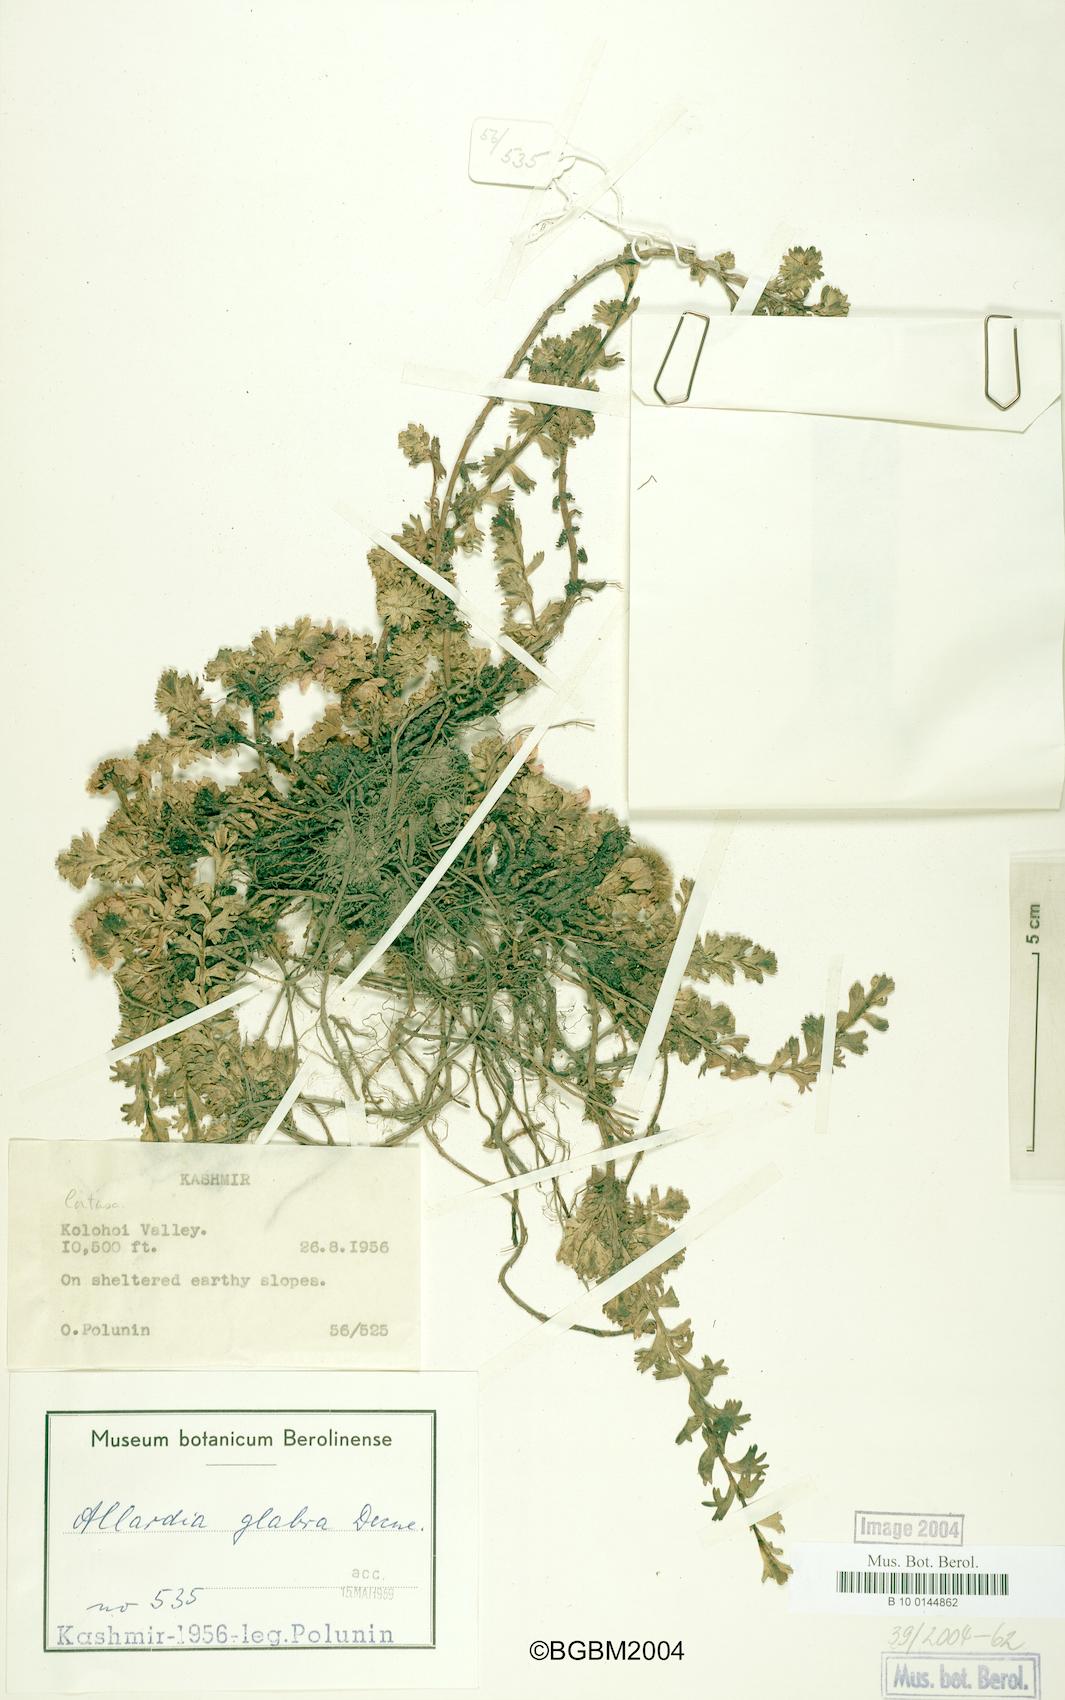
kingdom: Plantae
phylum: Tracheophyta
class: Magnoliopsida
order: Asterales
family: Asteraceae
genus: Allardia
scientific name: Allardia glabra
